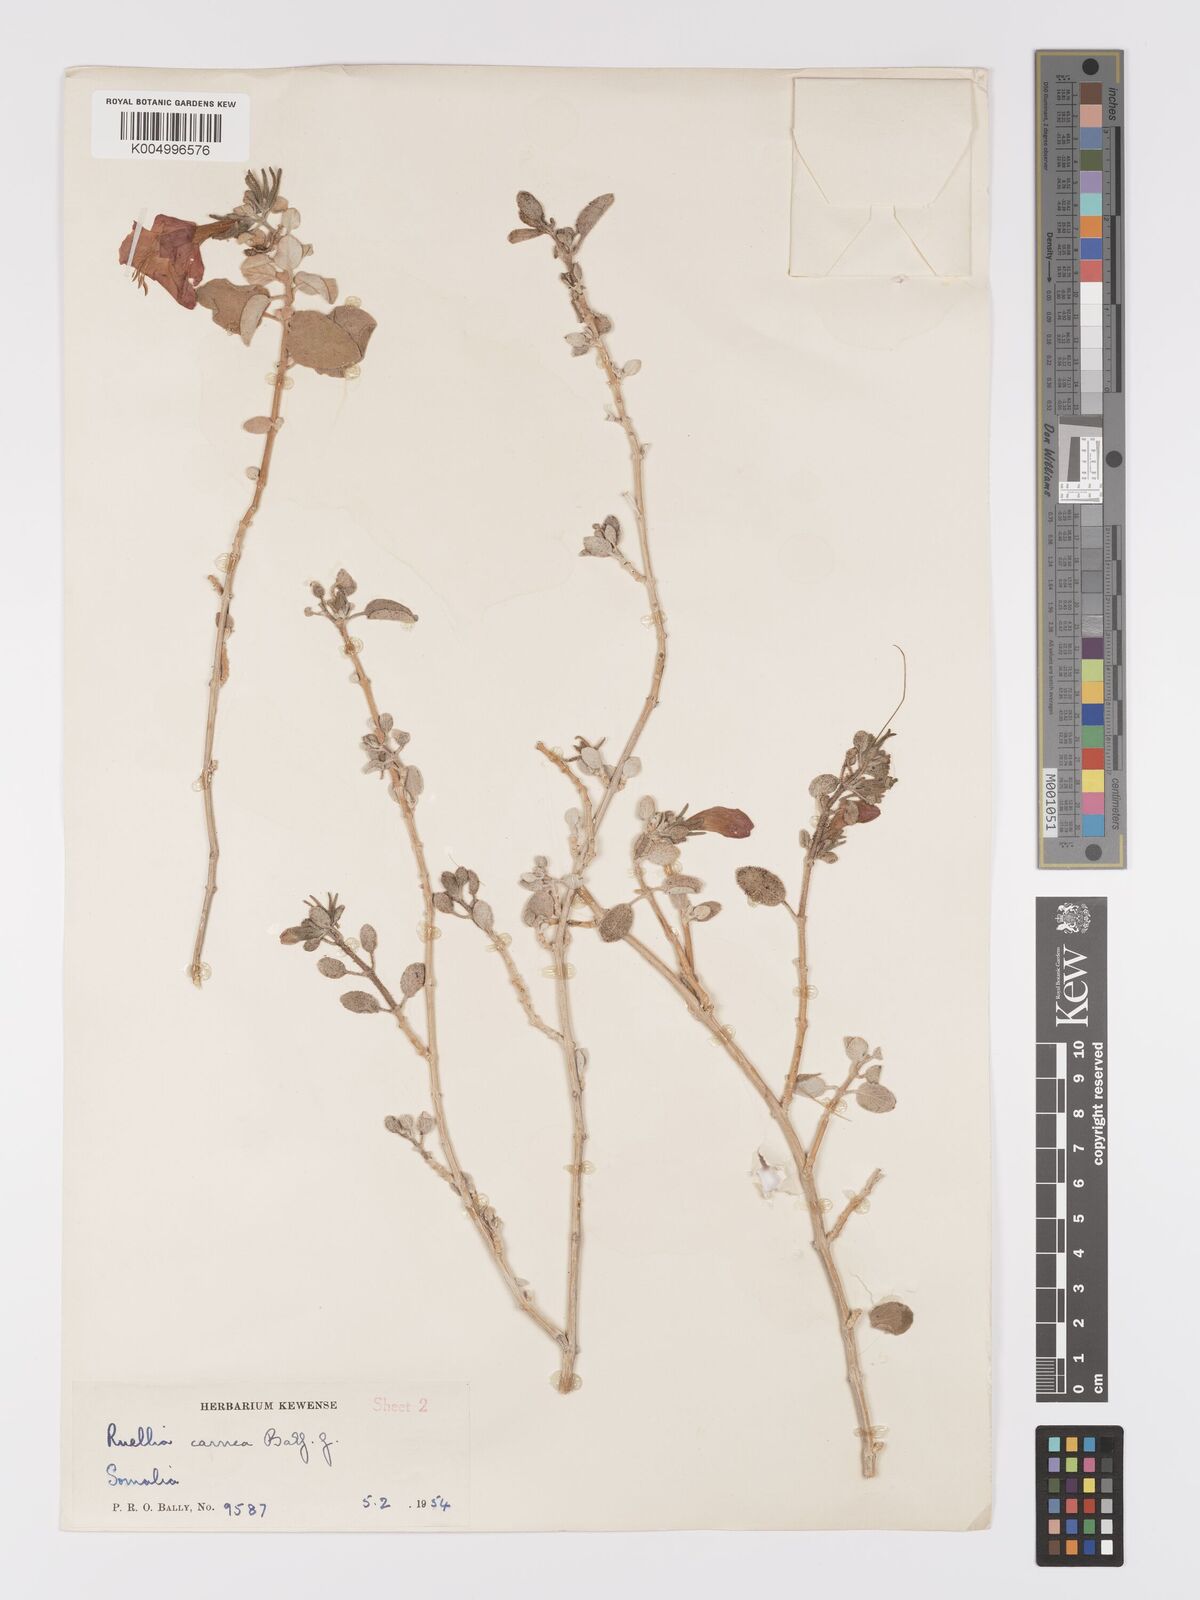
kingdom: Plantae
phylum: Tracheophyta
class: Magnoliopsida
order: Lamiales
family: Acanthaceae
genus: Ruellia
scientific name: Ruellia carnea
